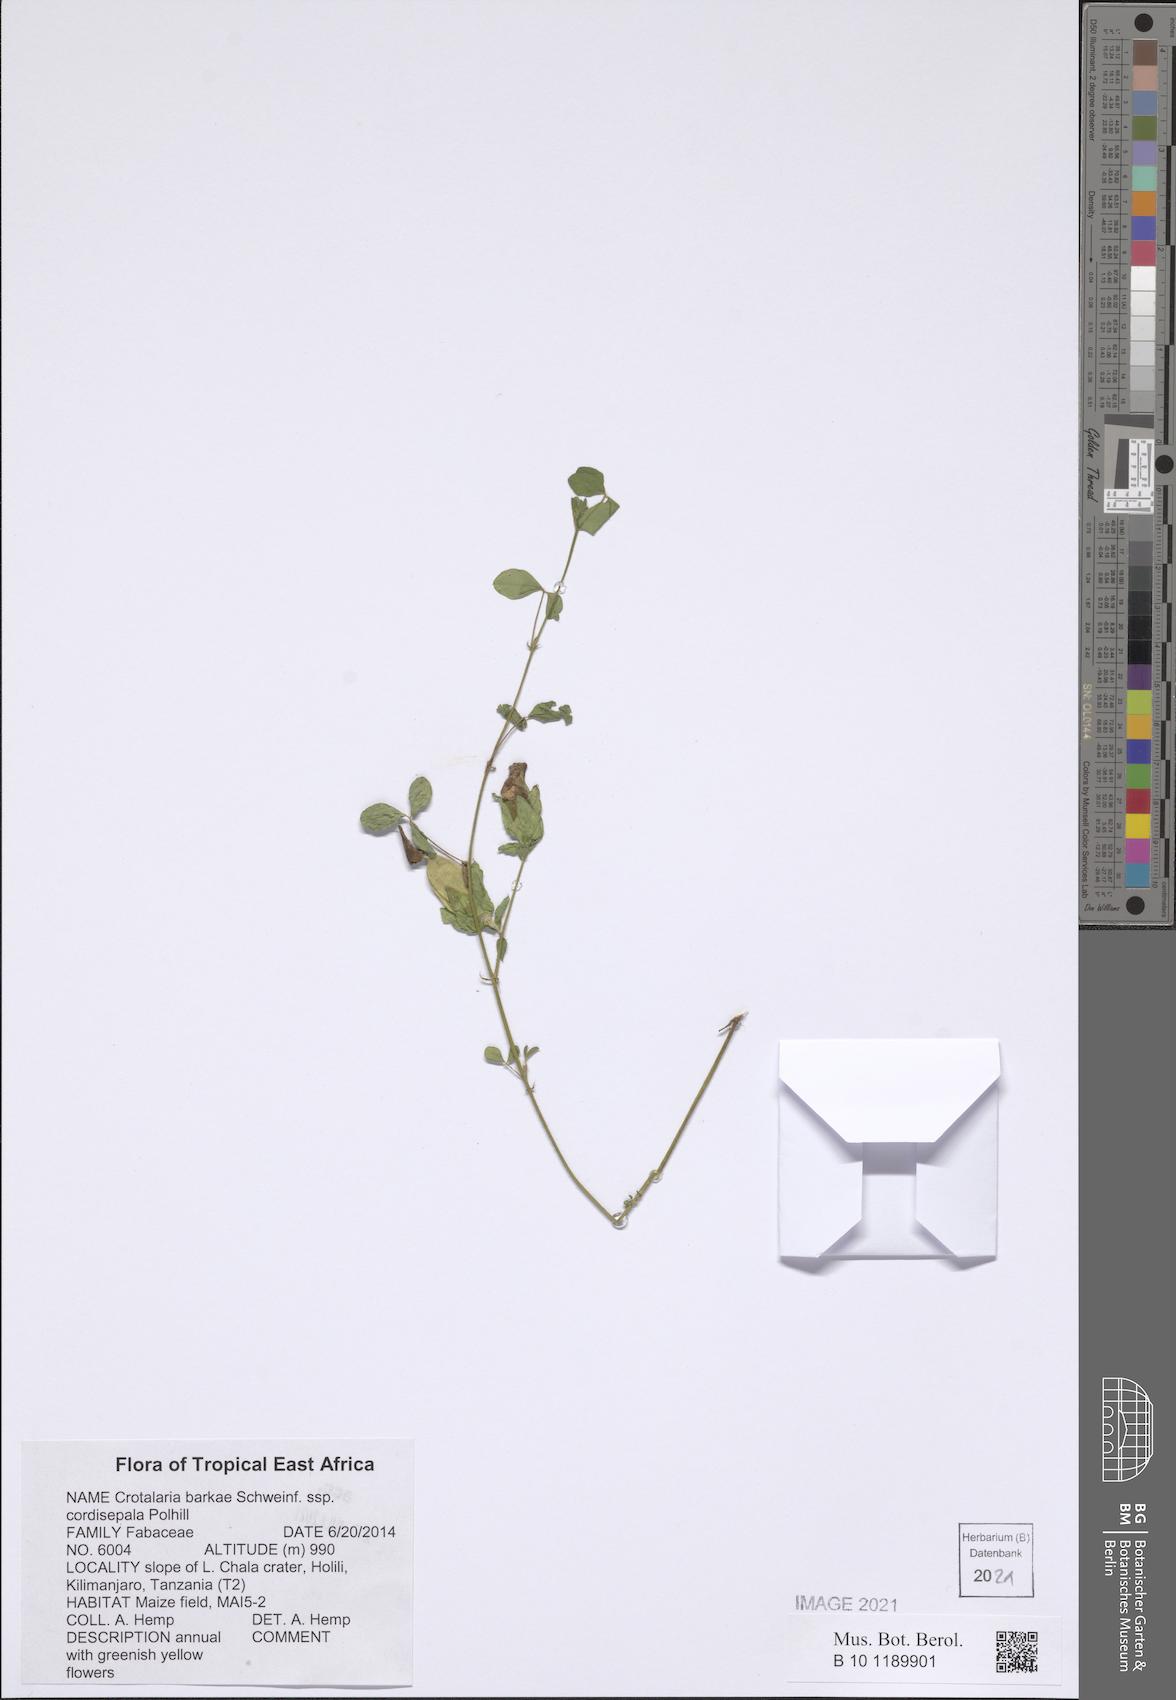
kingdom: Plantae
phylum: Tracheophyta
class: Magnoliopsida
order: Fabales
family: Fabaceae
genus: Crotalaria
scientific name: Crotalaria barkae
